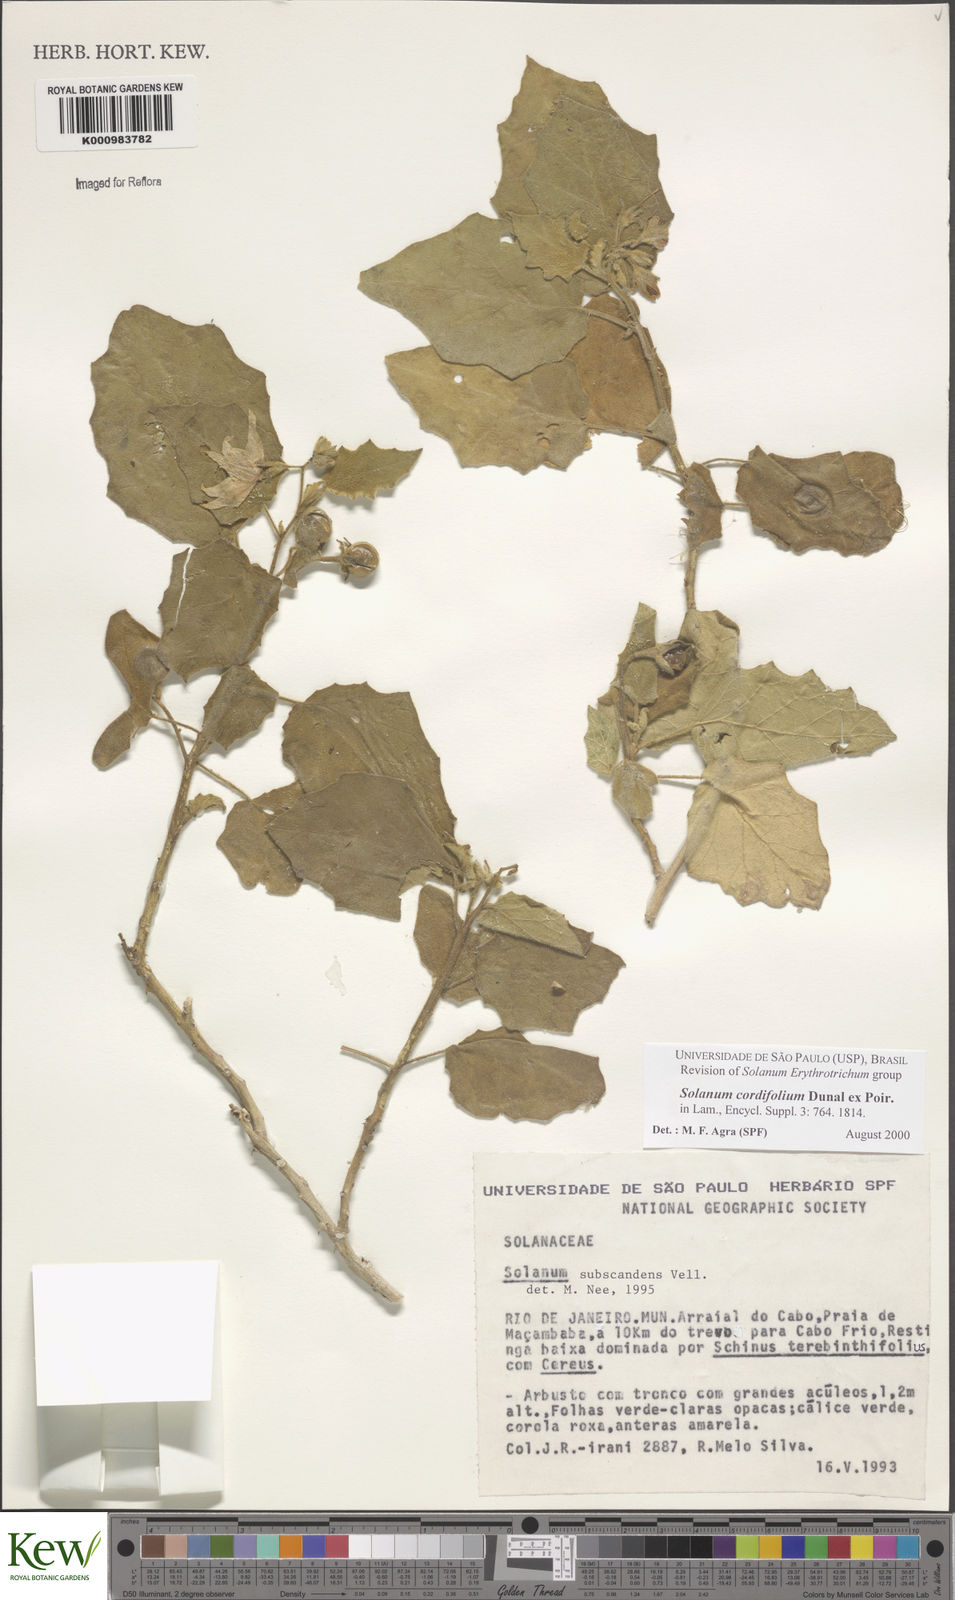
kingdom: Plantae
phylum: Tracheophyta
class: Magnoliopsida
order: Solanales
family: Solanaceae
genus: Solanum
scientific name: Solanum cordifolium
